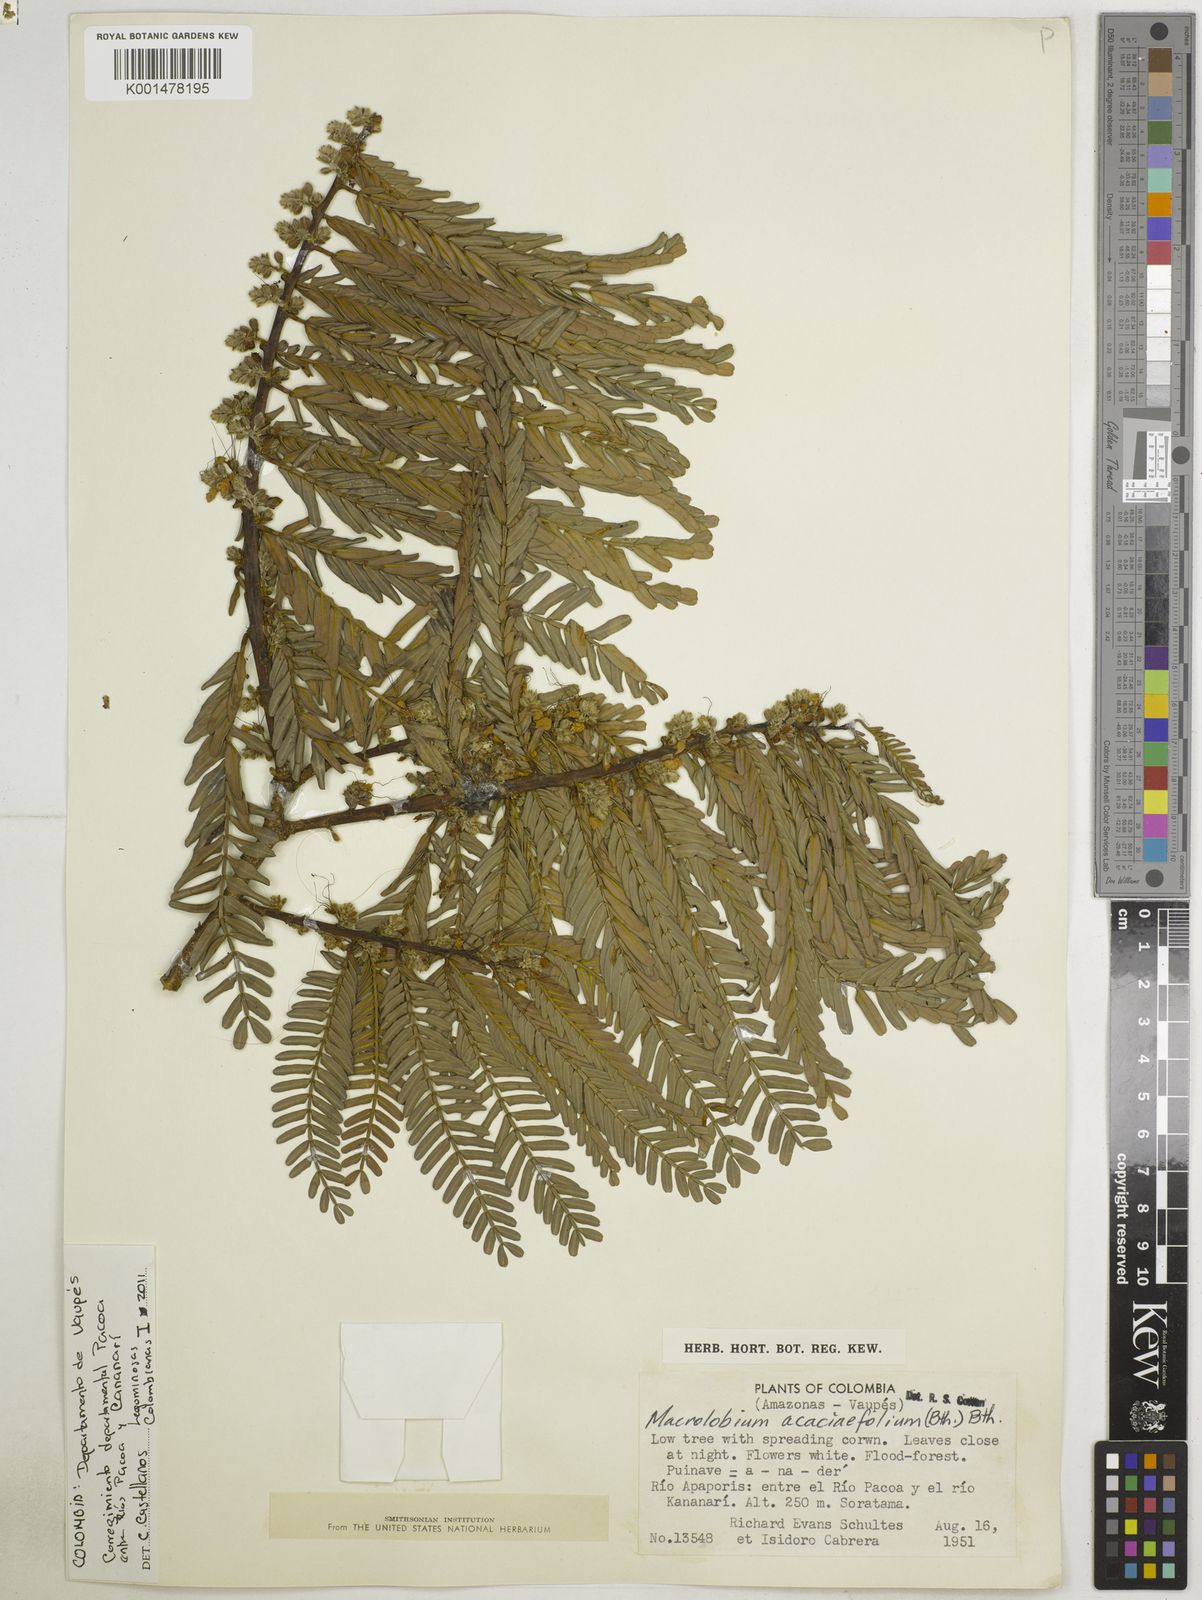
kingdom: Plantae
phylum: Tracheophyta
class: Magnoliopsida
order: Fabales
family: Fabaceae
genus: Macrolobium
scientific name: Macrolobium acaciifolium
